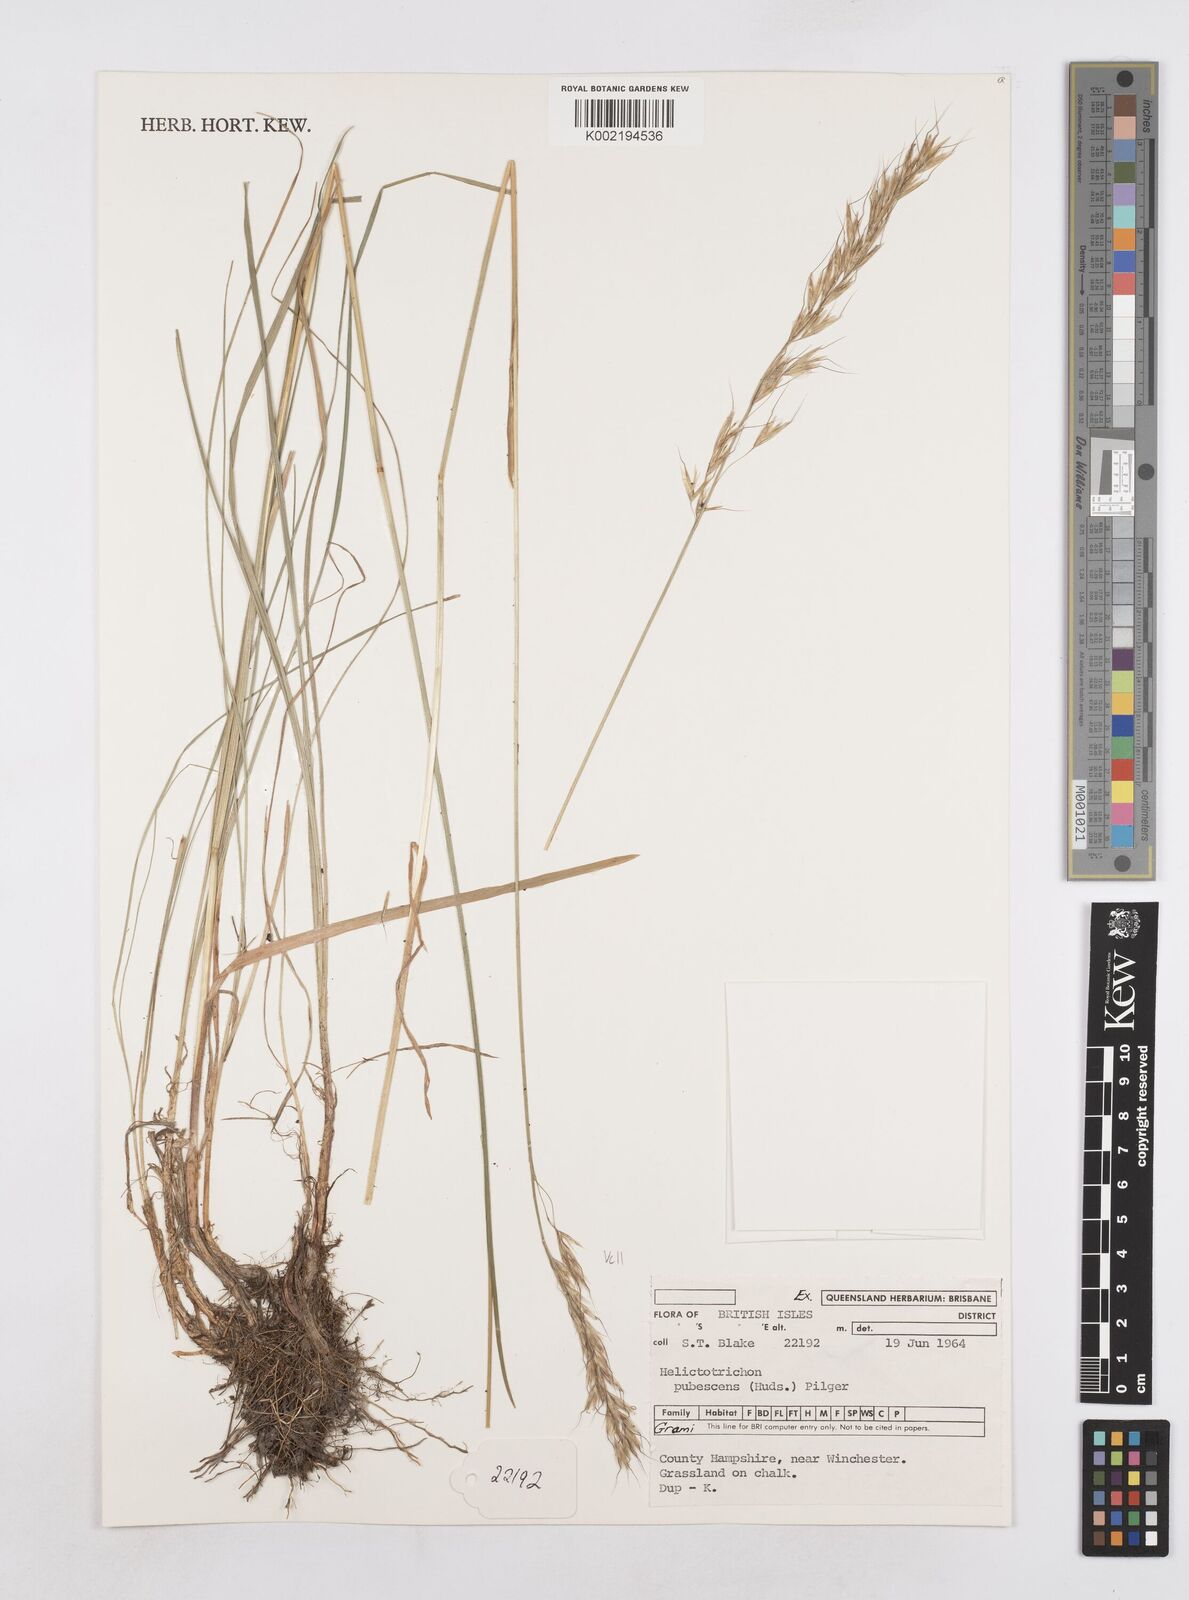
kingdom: Plantae
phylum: Tracheophyta
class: Liliopsida
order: Poales
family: Poaceae
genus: Avenula
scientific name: Avenula pubescens
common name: Downy alpine oatgrass
